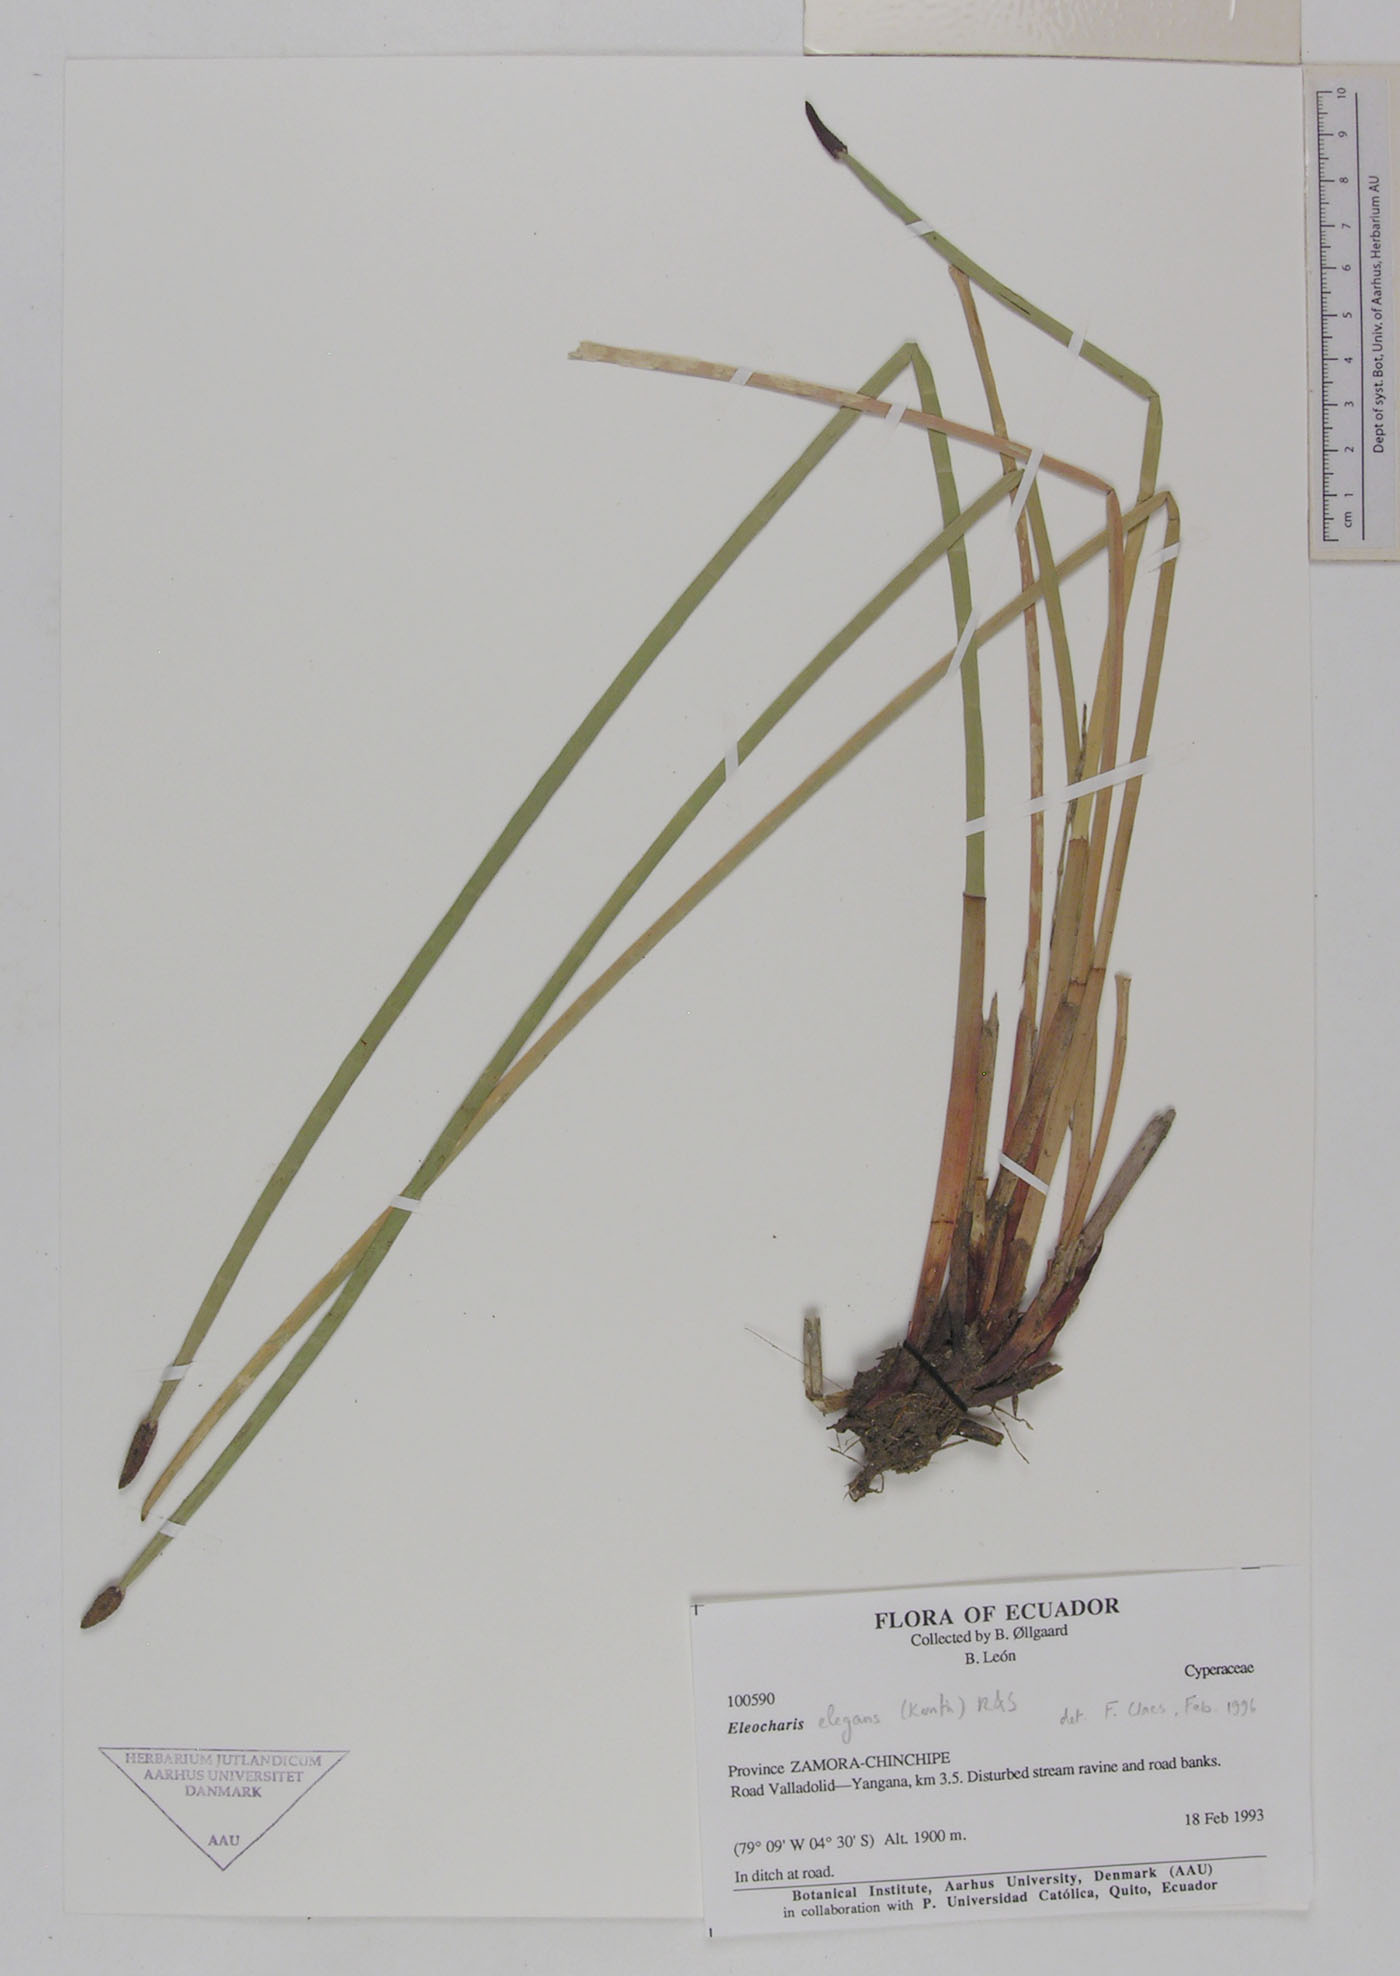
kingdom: Plantae
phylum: Tracheophyta
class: Liliopsida
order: Poales
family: Cyperaceae
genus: Eleocharis
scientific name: Eleocharis elegans
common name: Elegant spike-rush
